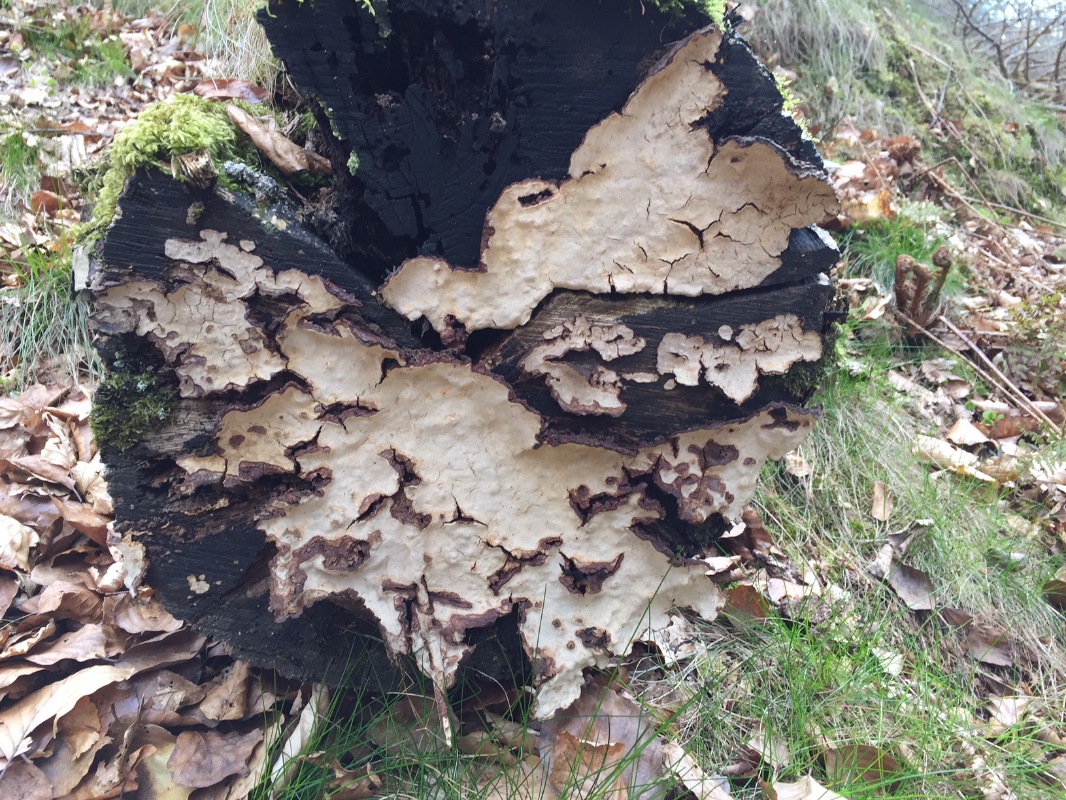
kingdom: Fungi
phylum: Basidiomycota
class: Agaricomycetes
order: Russulales
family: Stereaceae
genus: Stereum
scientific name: Stereum rugosum
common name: rynket lædersvamp
